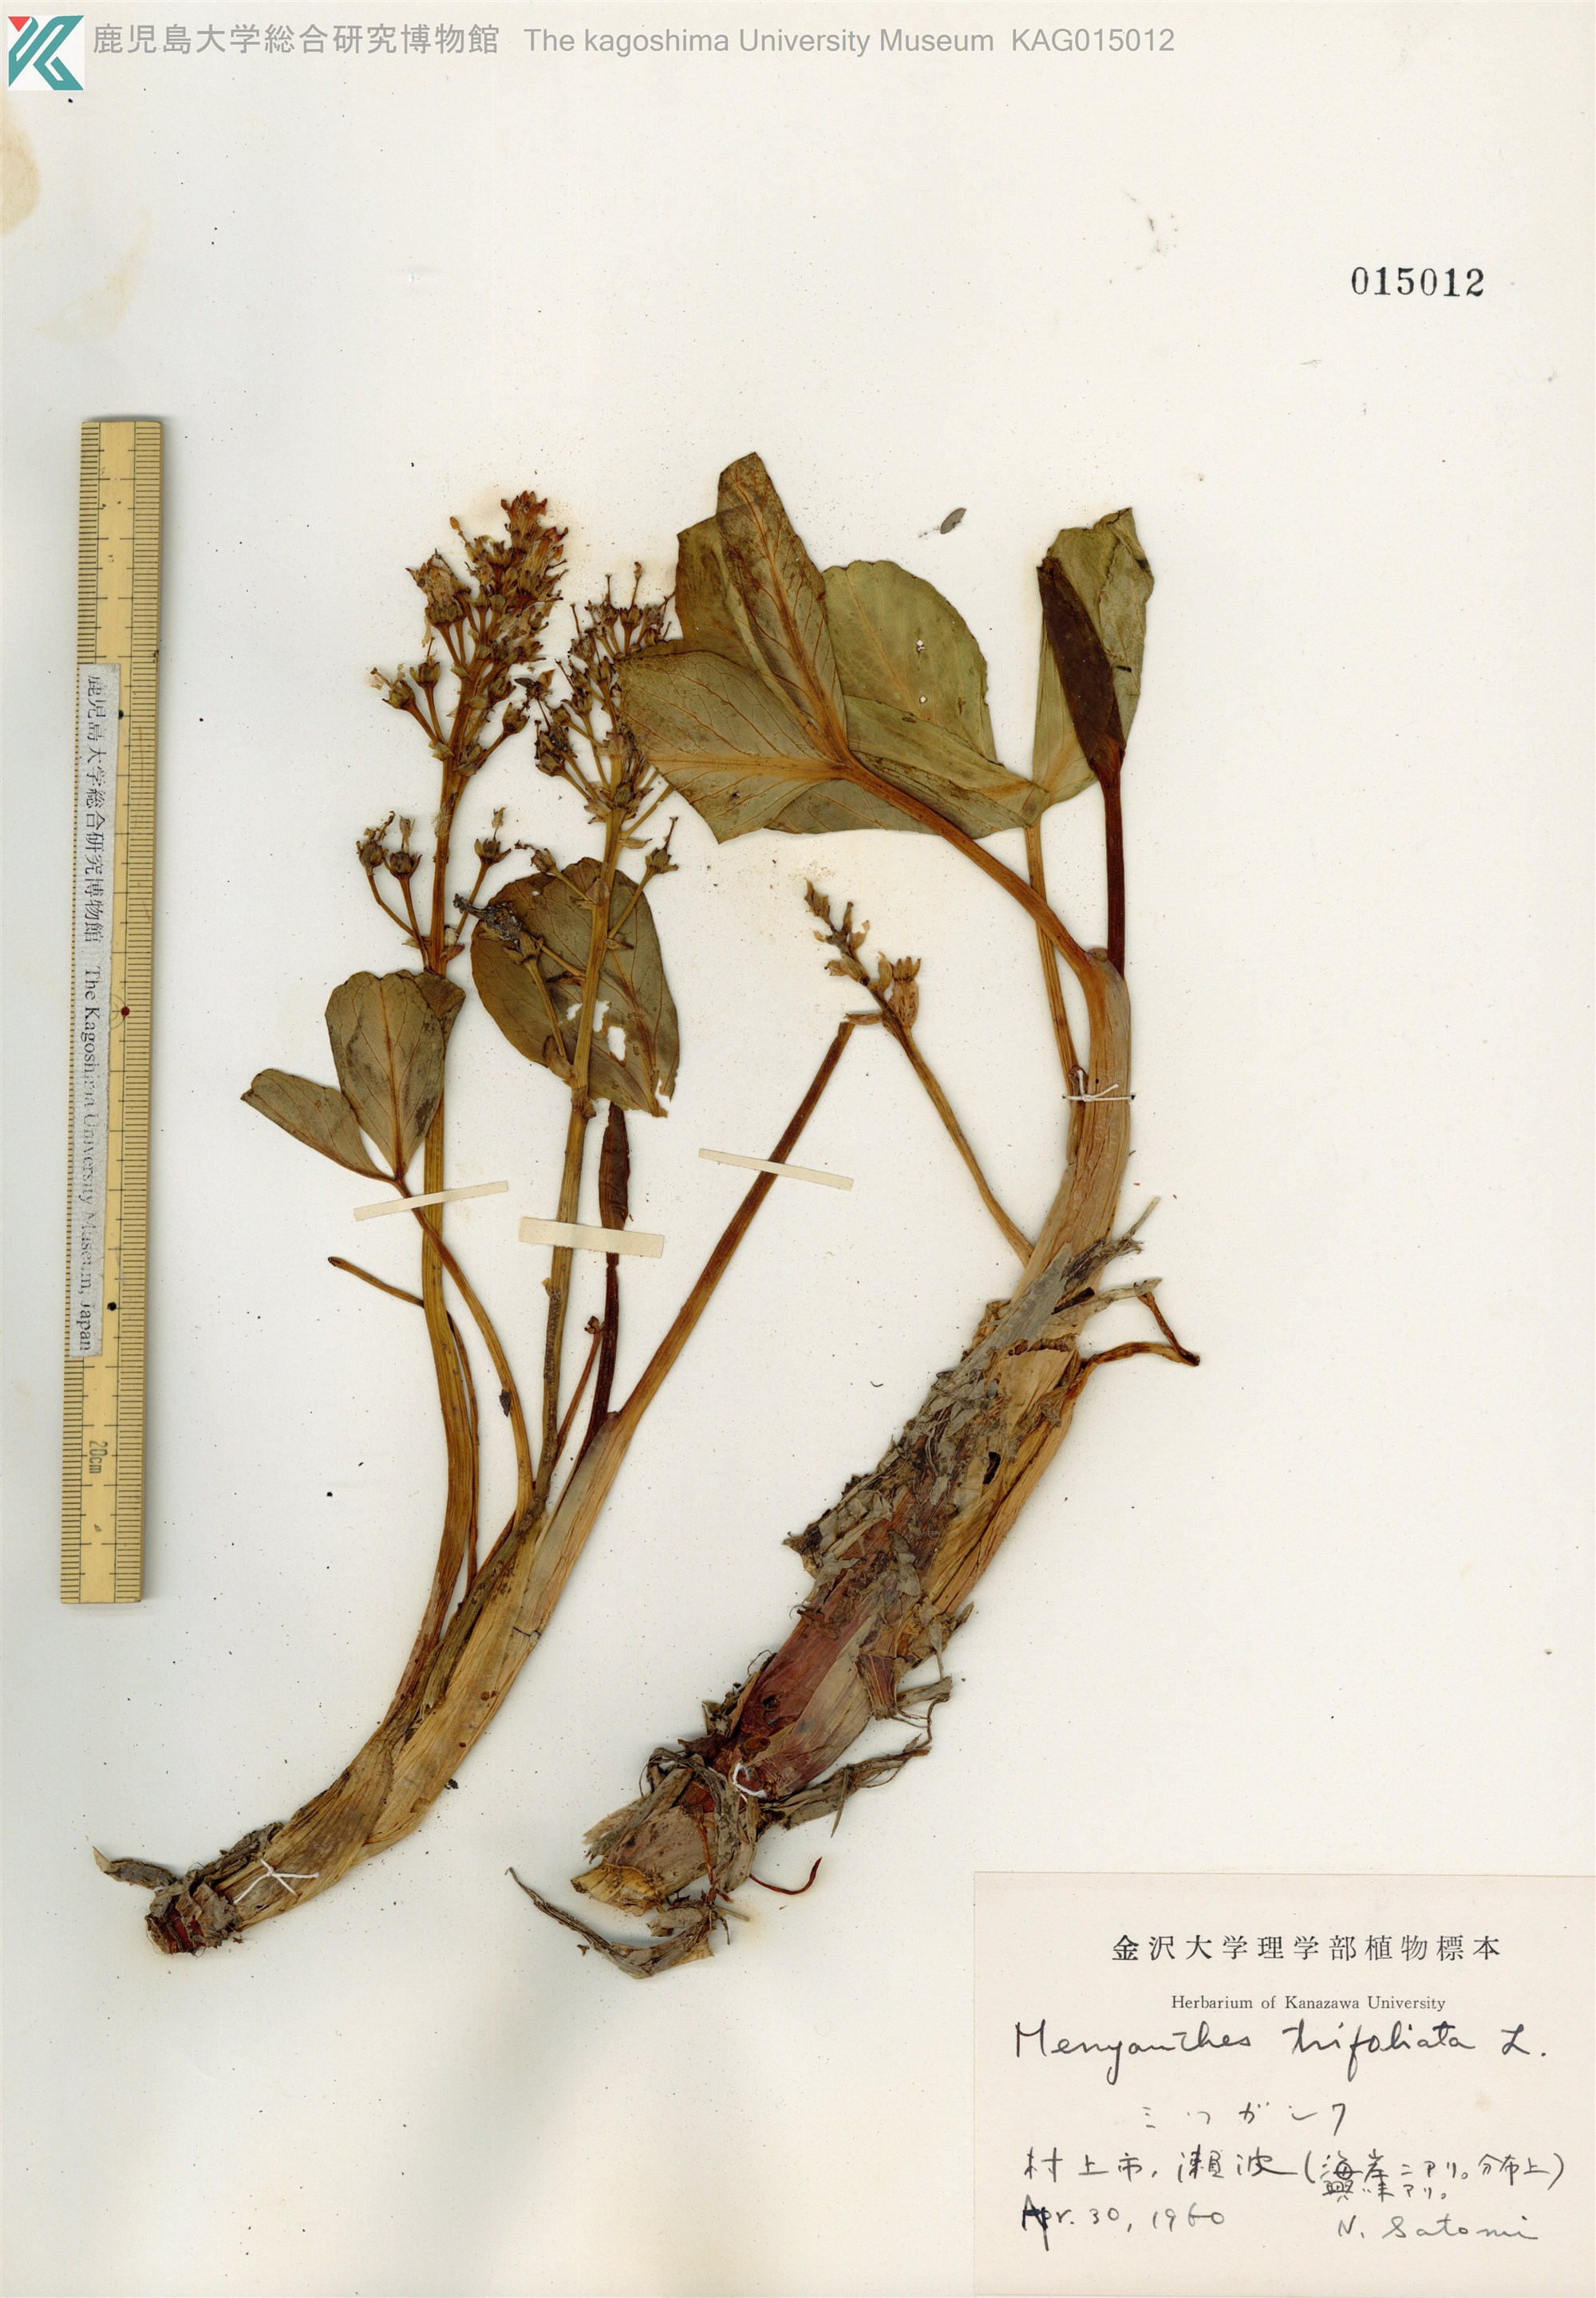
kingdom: Plantae
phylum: Tracheophyta
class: Magnoliopsida
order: Asterales
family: Menyanthaceae
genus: Menyanthes
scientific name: Menyanthes trifoliata
